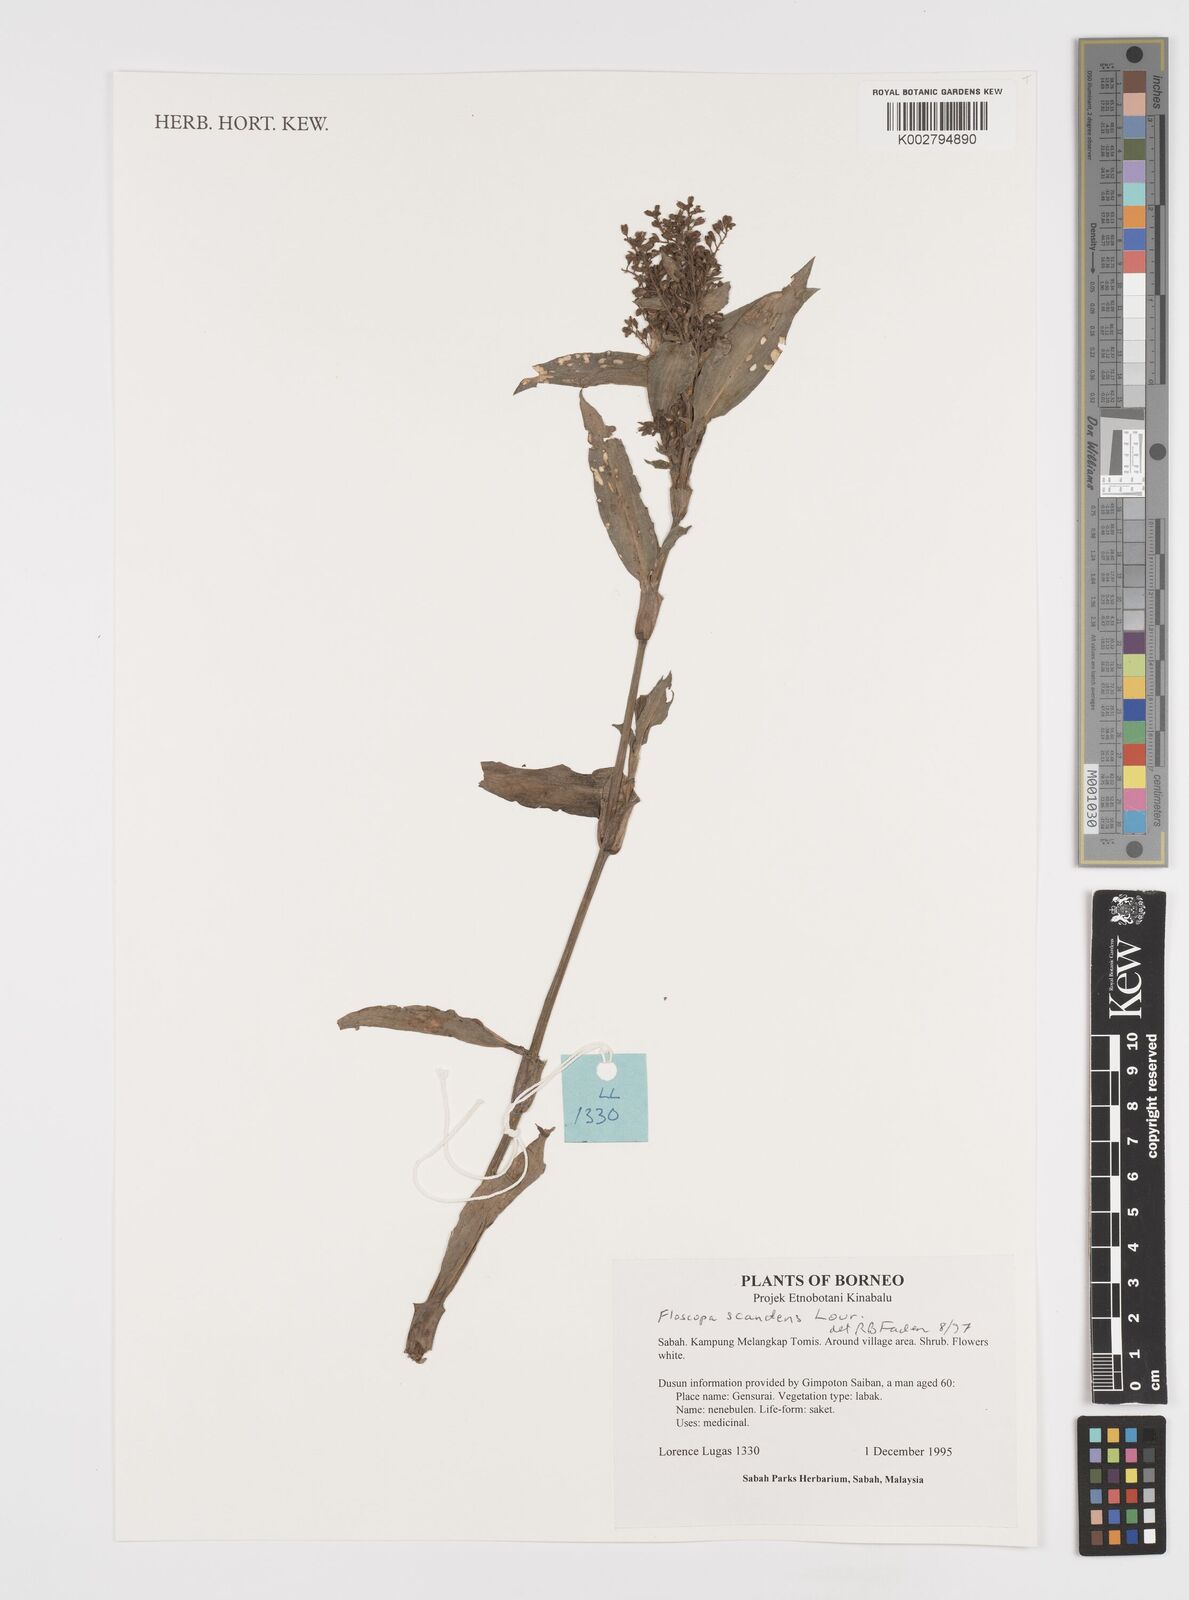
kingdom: Plantae
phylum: Tracheophyta
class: Liliopsida
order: Commelinales
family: Commelinaceae
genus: Floscopa
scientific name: Floscopa scandens
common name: Climbing flower cup
